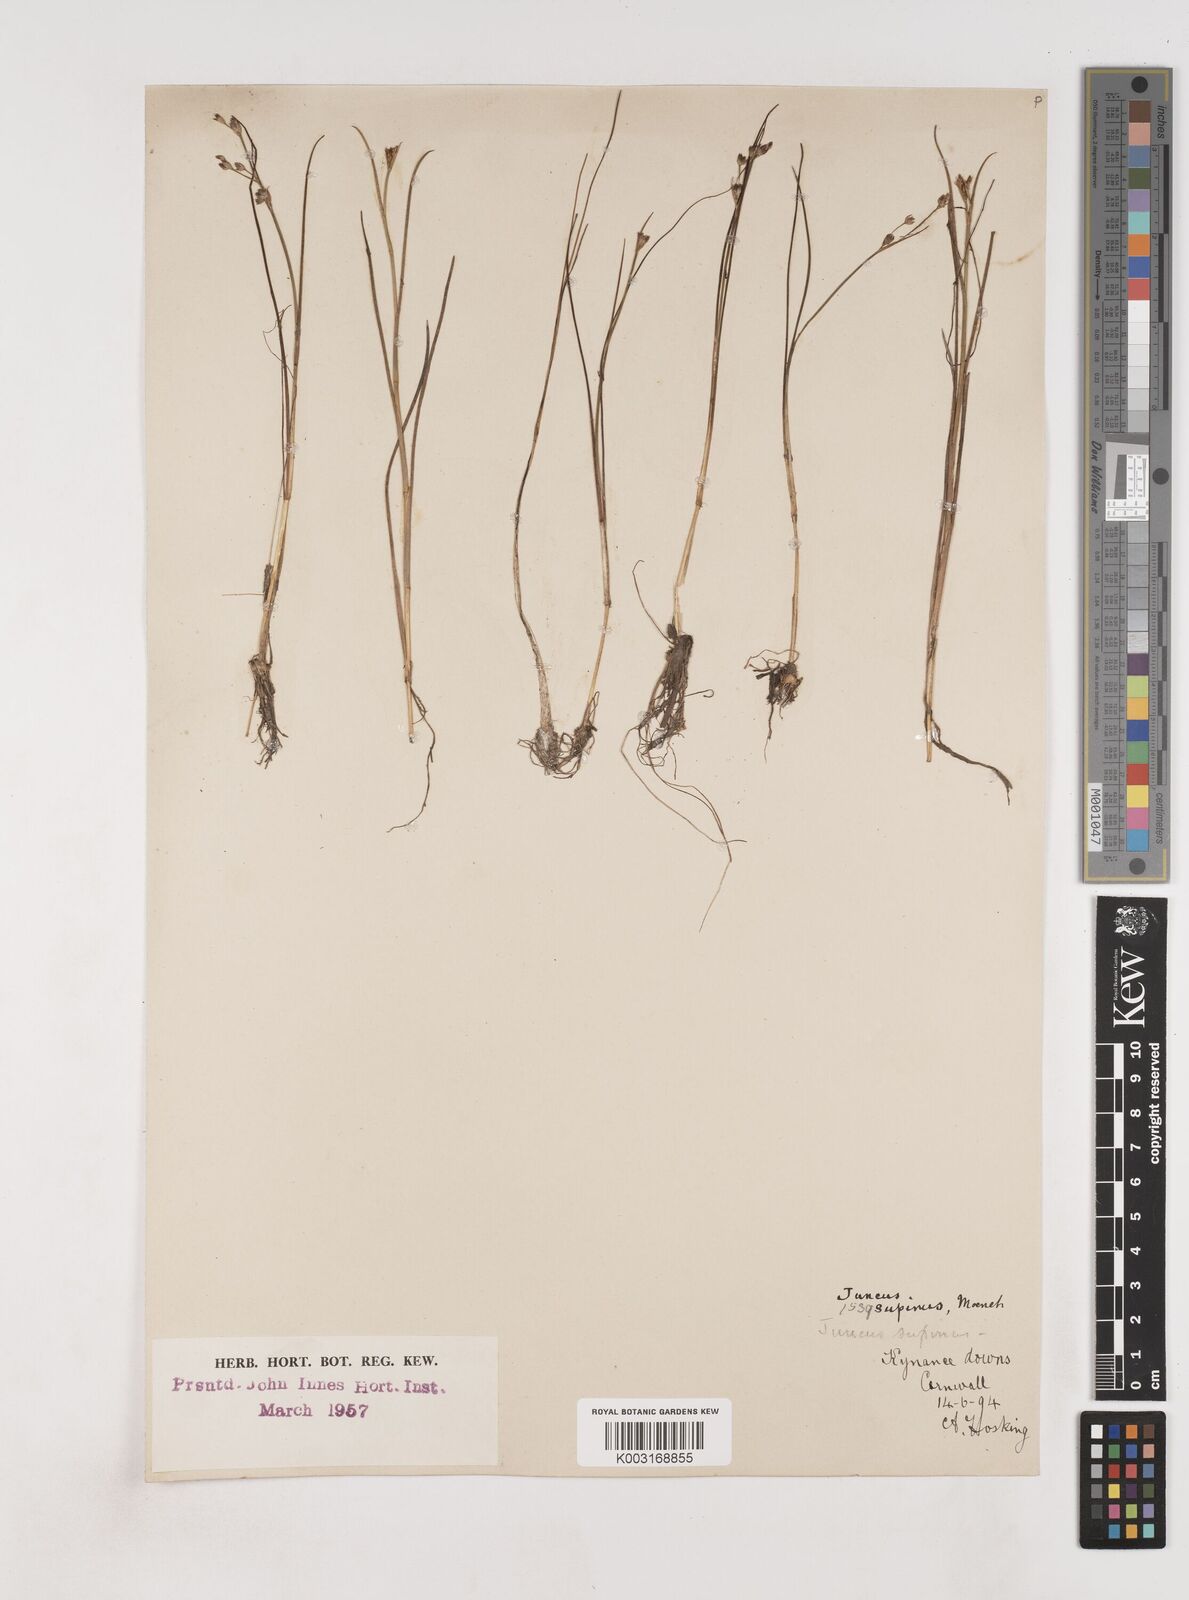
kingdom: Plantae
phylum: Tracheophyta
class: Liliopsida
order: Poales
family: Juncaceae
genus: Juncus
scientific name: Juncus bulbosus
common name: Bulbous rush
